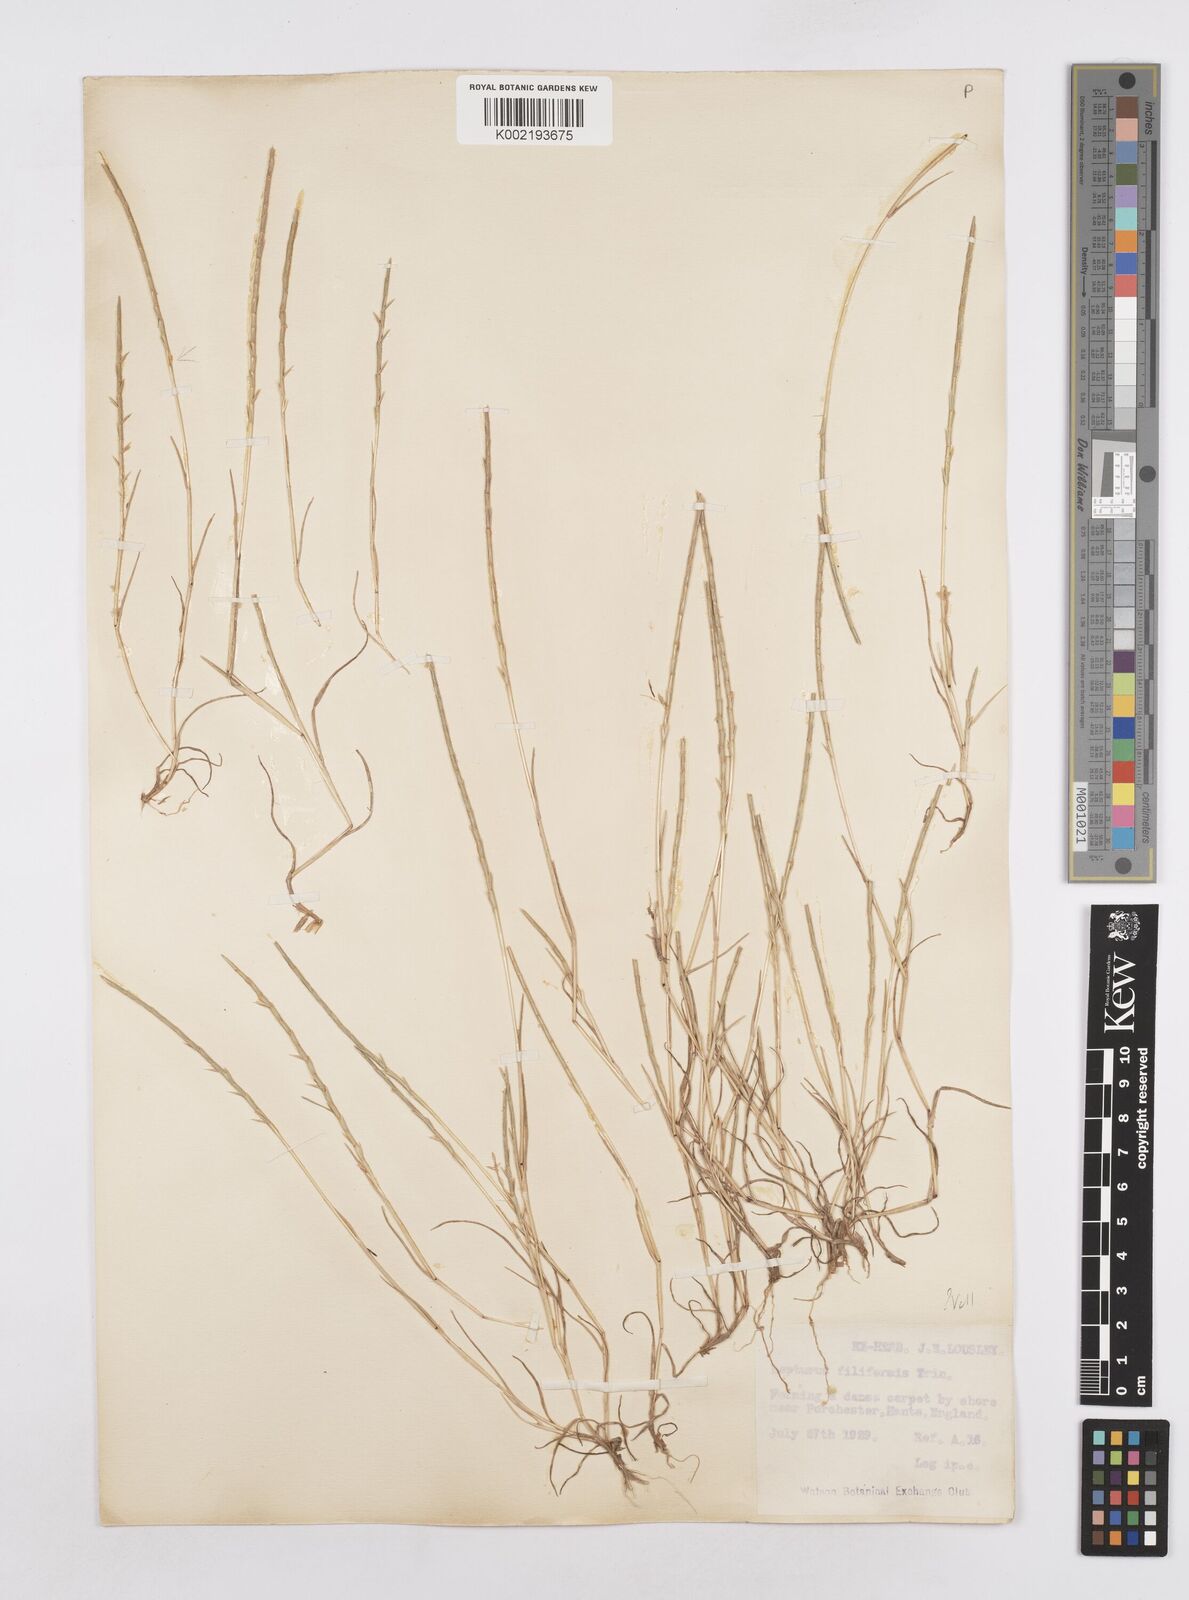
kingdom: Plantae
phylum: Tracheophyta
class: Liliopsida
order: Poales
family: Poaceae
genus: Parapholis
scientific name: Parapholis strigosa
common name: Hard-grass
